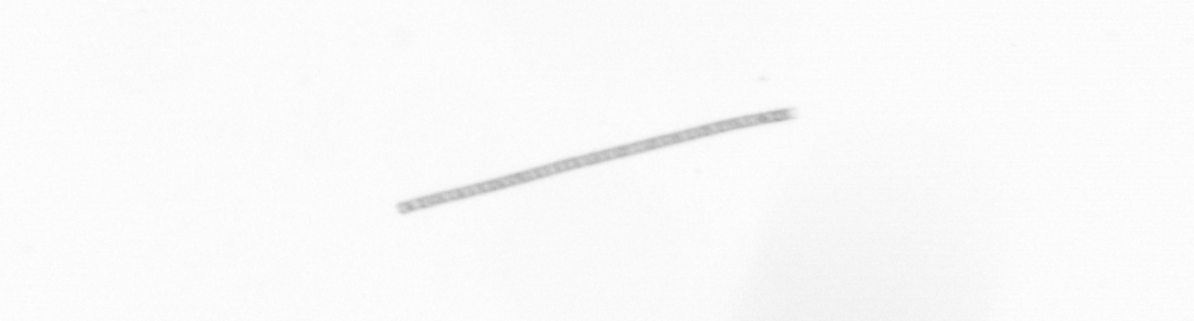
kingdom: Chromista
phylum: Ochrophyta
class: Bacillariophyceae
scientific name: Bacillariophyceae
